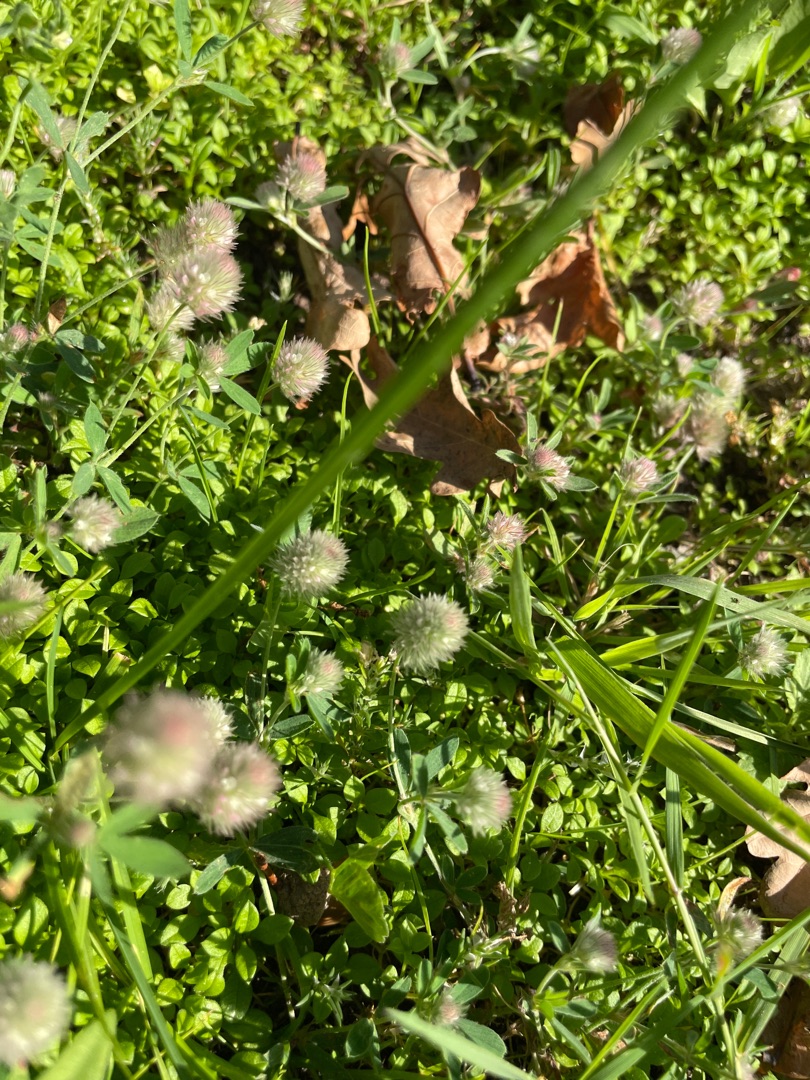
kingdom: Plantae
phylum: Tracheophyta
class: Magnoliopsida
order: Fabales
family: Fabaceae
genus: Trifolium
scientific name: Trifolium arvense
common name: Hare-kløver
